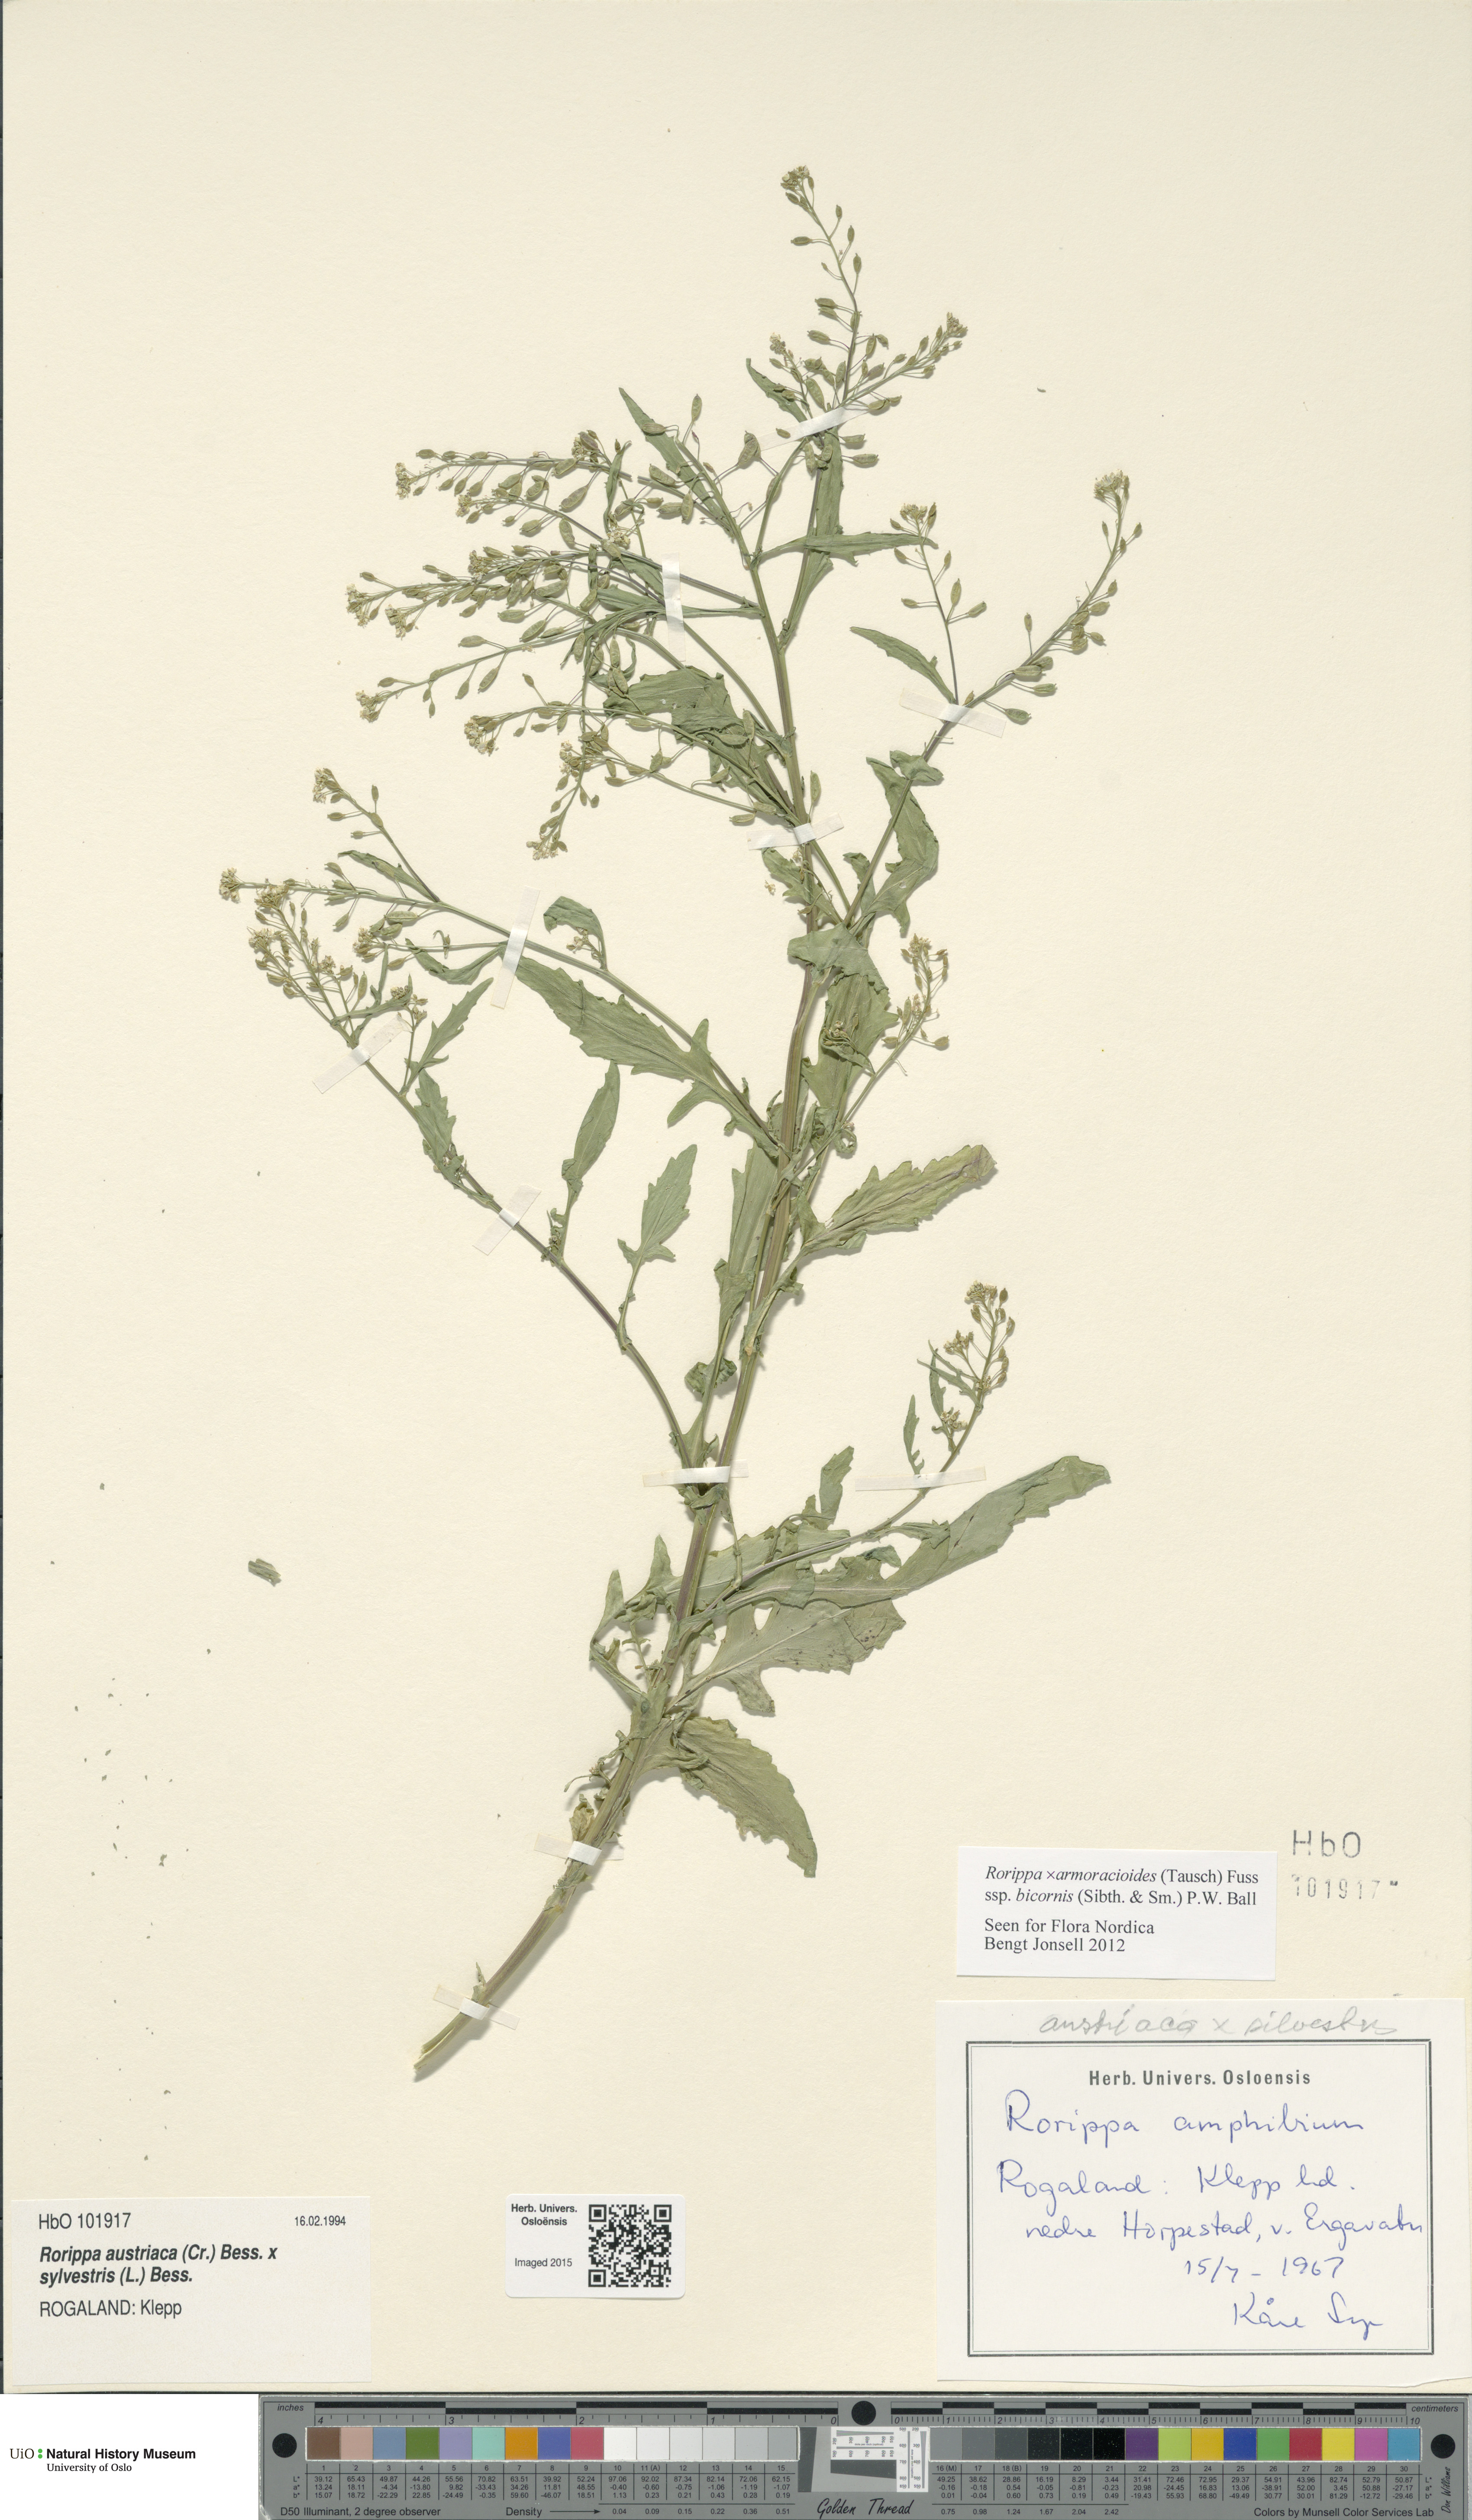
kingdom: Plantae
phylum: Tracheophyta
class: Magnoliopsida
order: Brassicales
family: Brassicaceae
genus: Rorippa
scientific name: Rorippa
